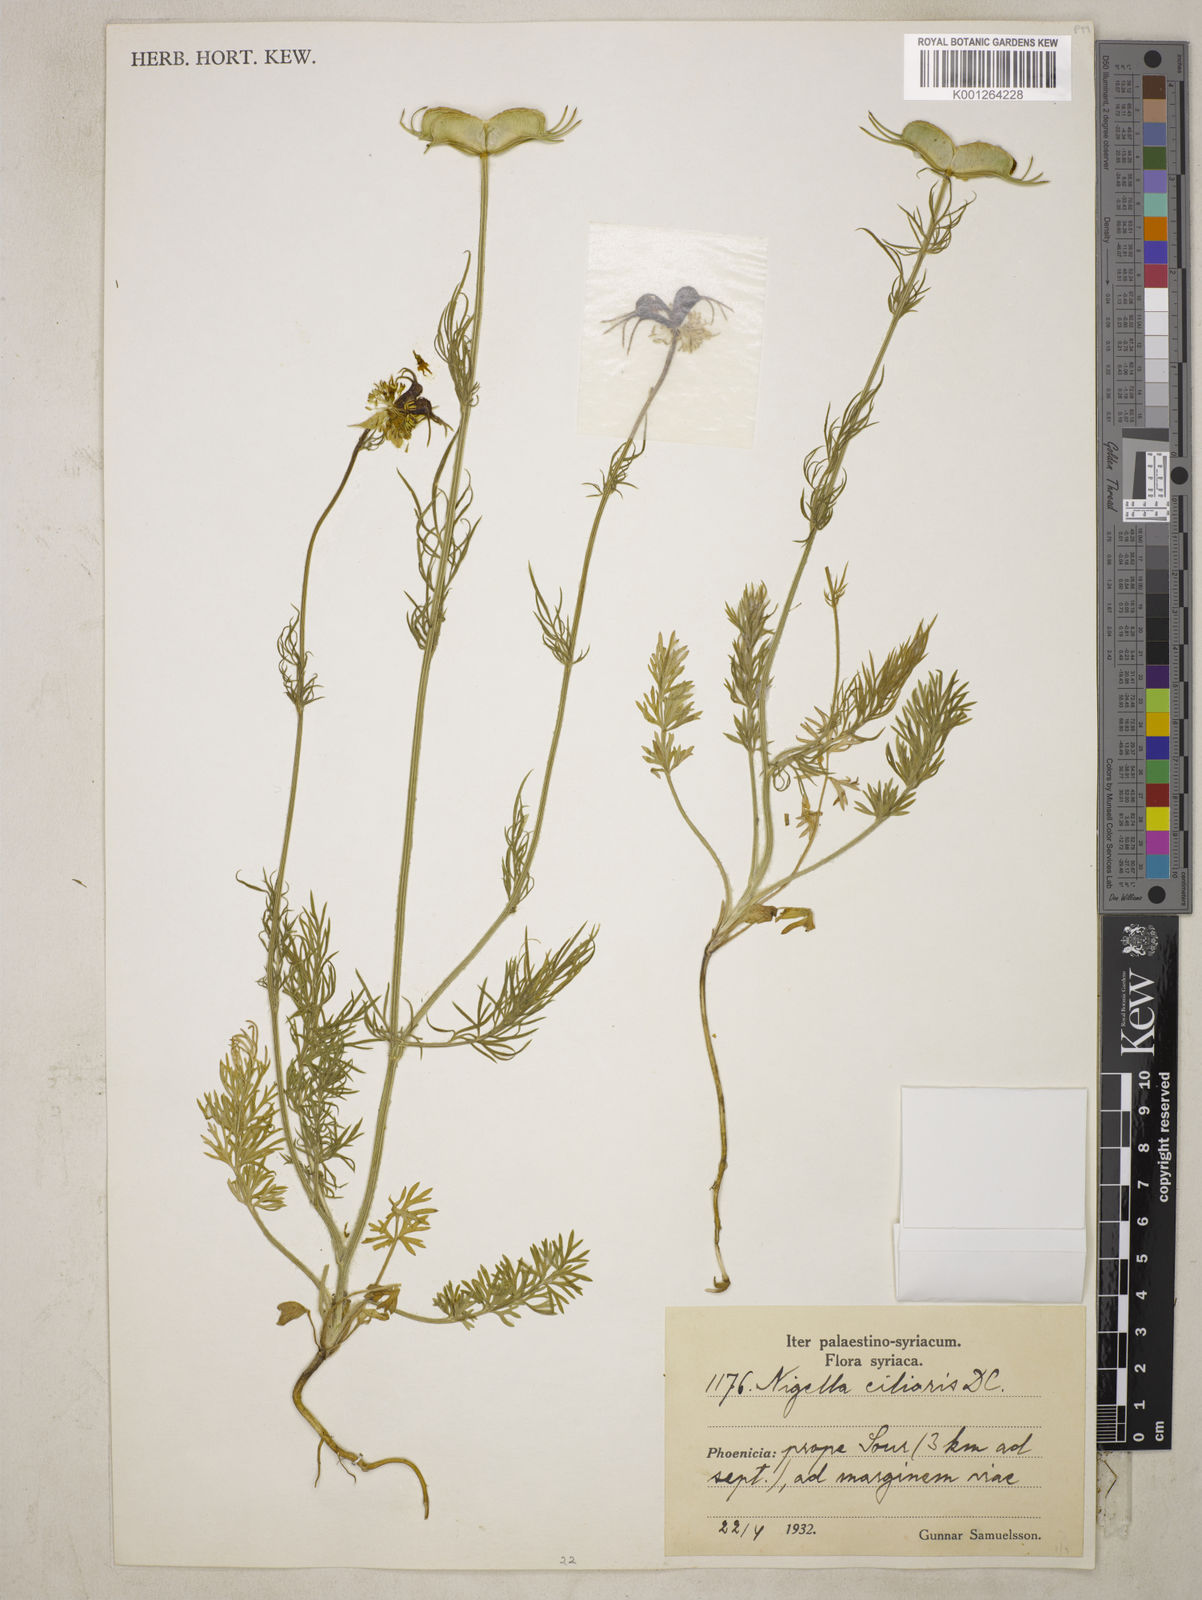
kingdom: Plantae
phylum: Tracheophyta
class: Magnoliopsida
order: Ranunculales
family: Ranunculaceae
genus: Nigella
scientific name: Nigella ciliaris
